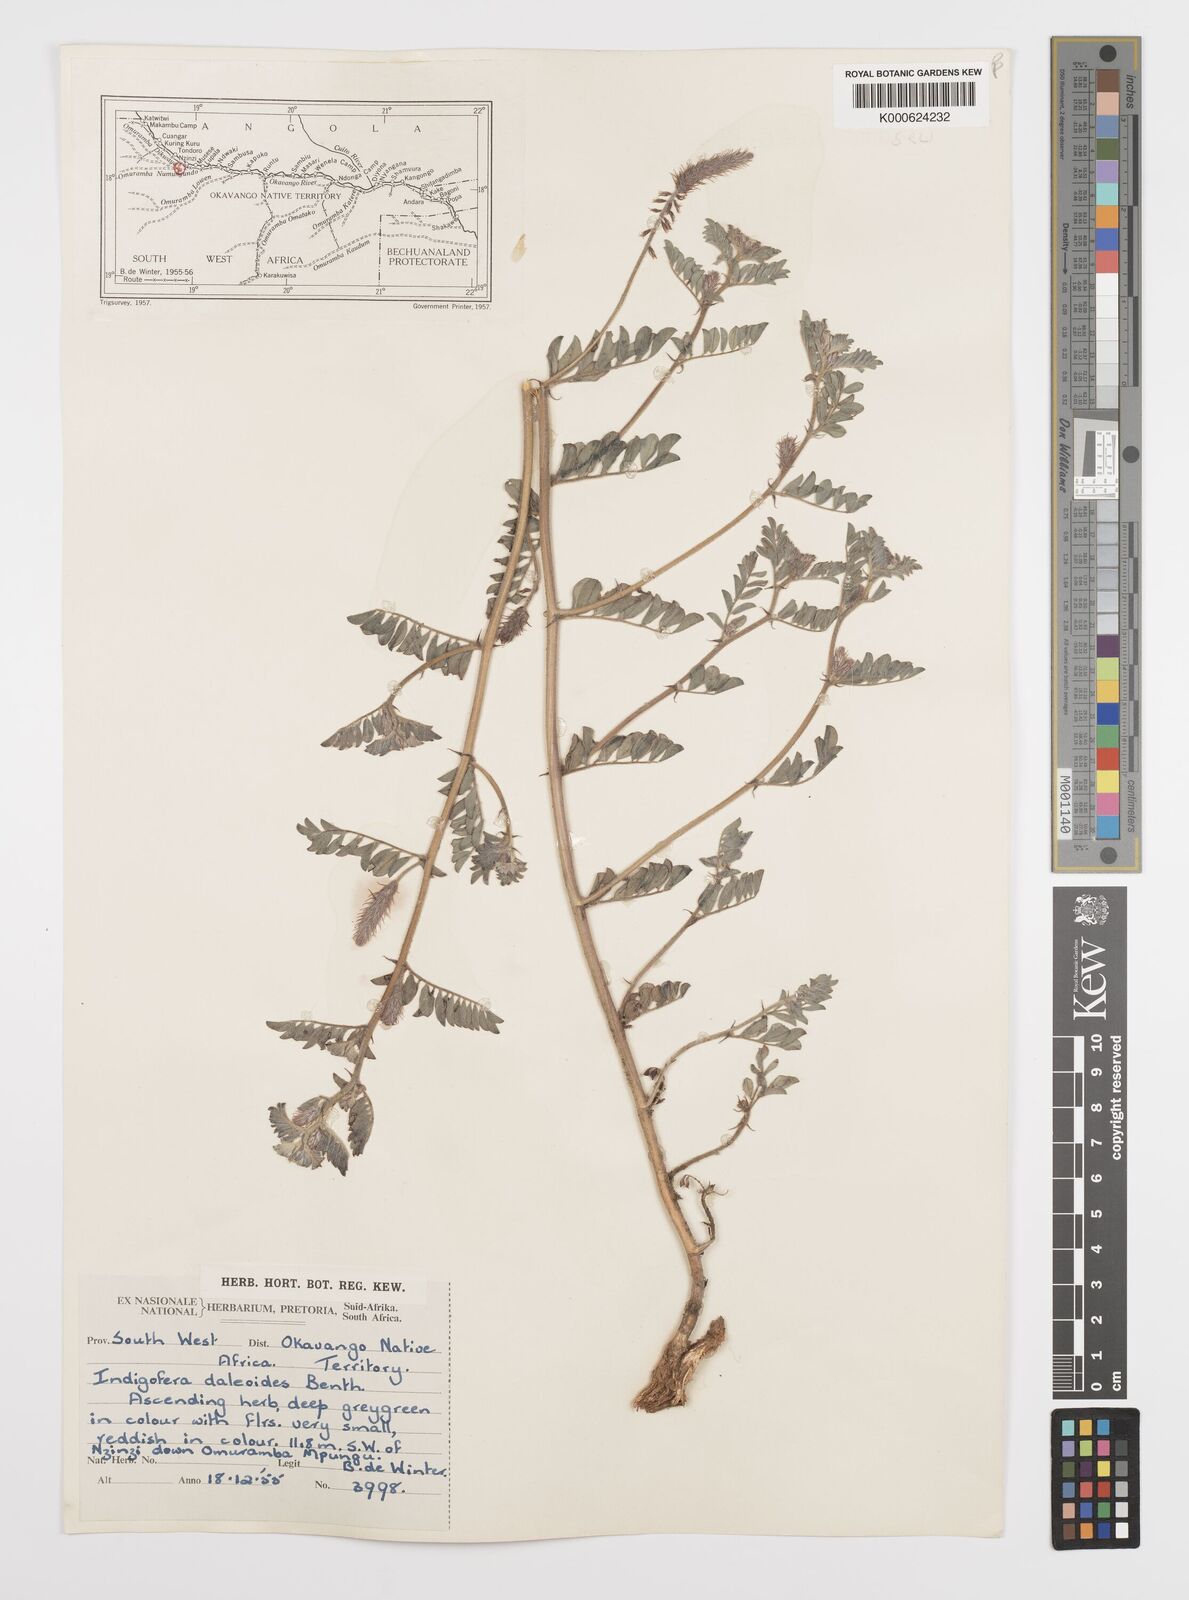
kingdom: Plantae
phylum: Tracheophyta
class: Magnoliopsida
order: Fabales
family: Fabaceae
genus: Indigofera
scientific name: Indigofera daleoides
